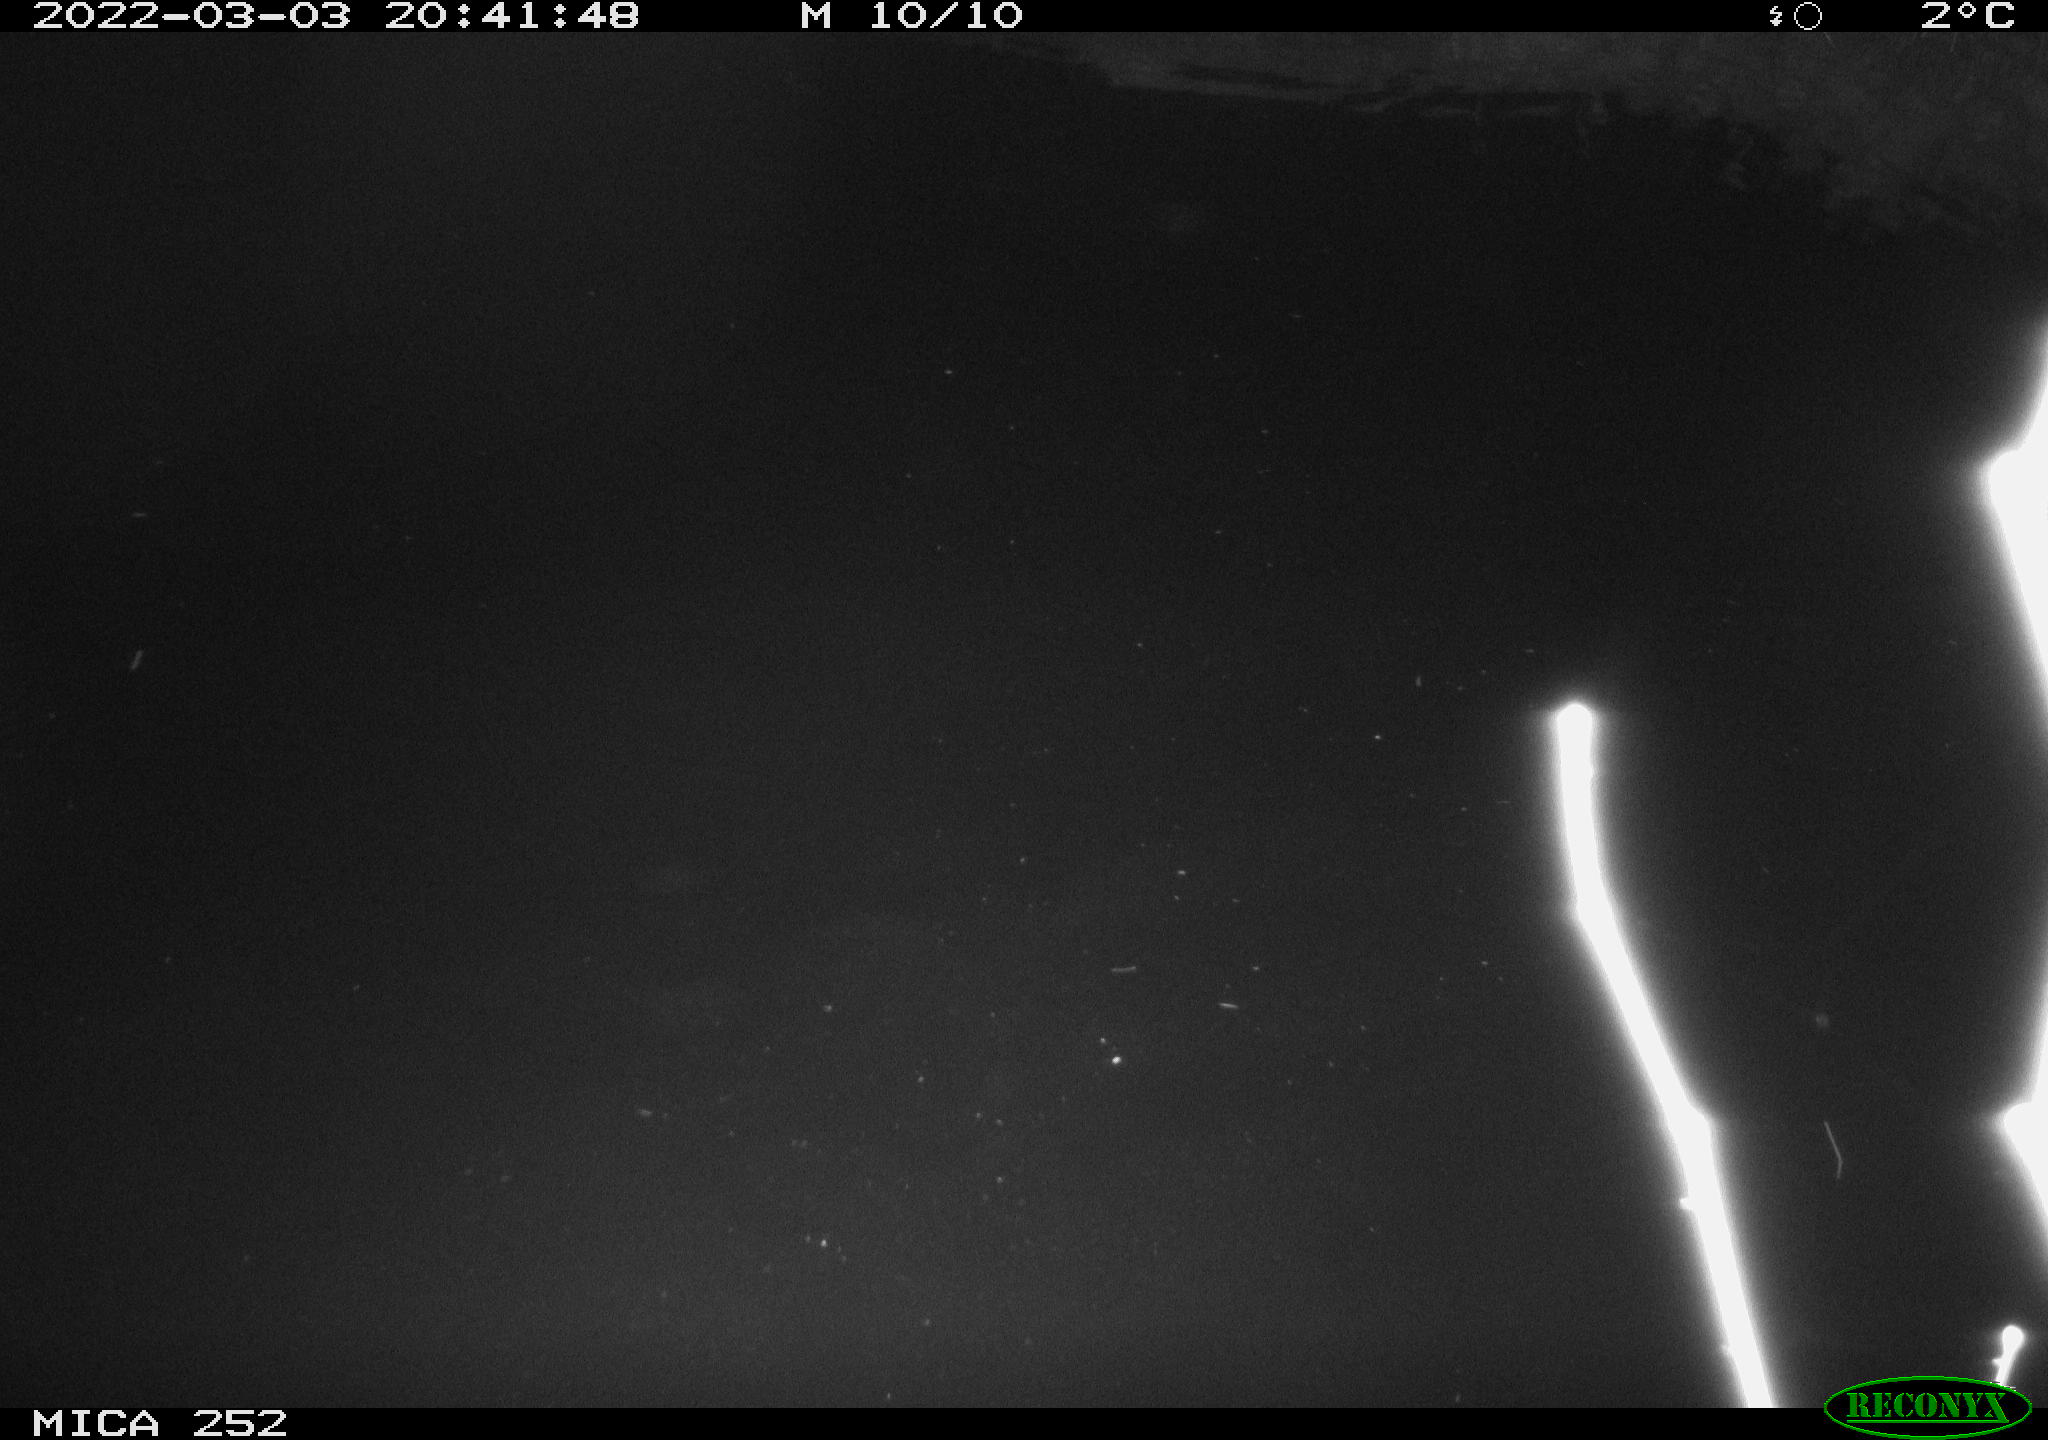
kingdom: Animalia
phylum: Chordata
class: Mammalia
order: Rodentia
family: Castoridae
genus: Castor
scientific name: Castor fiber
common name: Eurasian beaver
